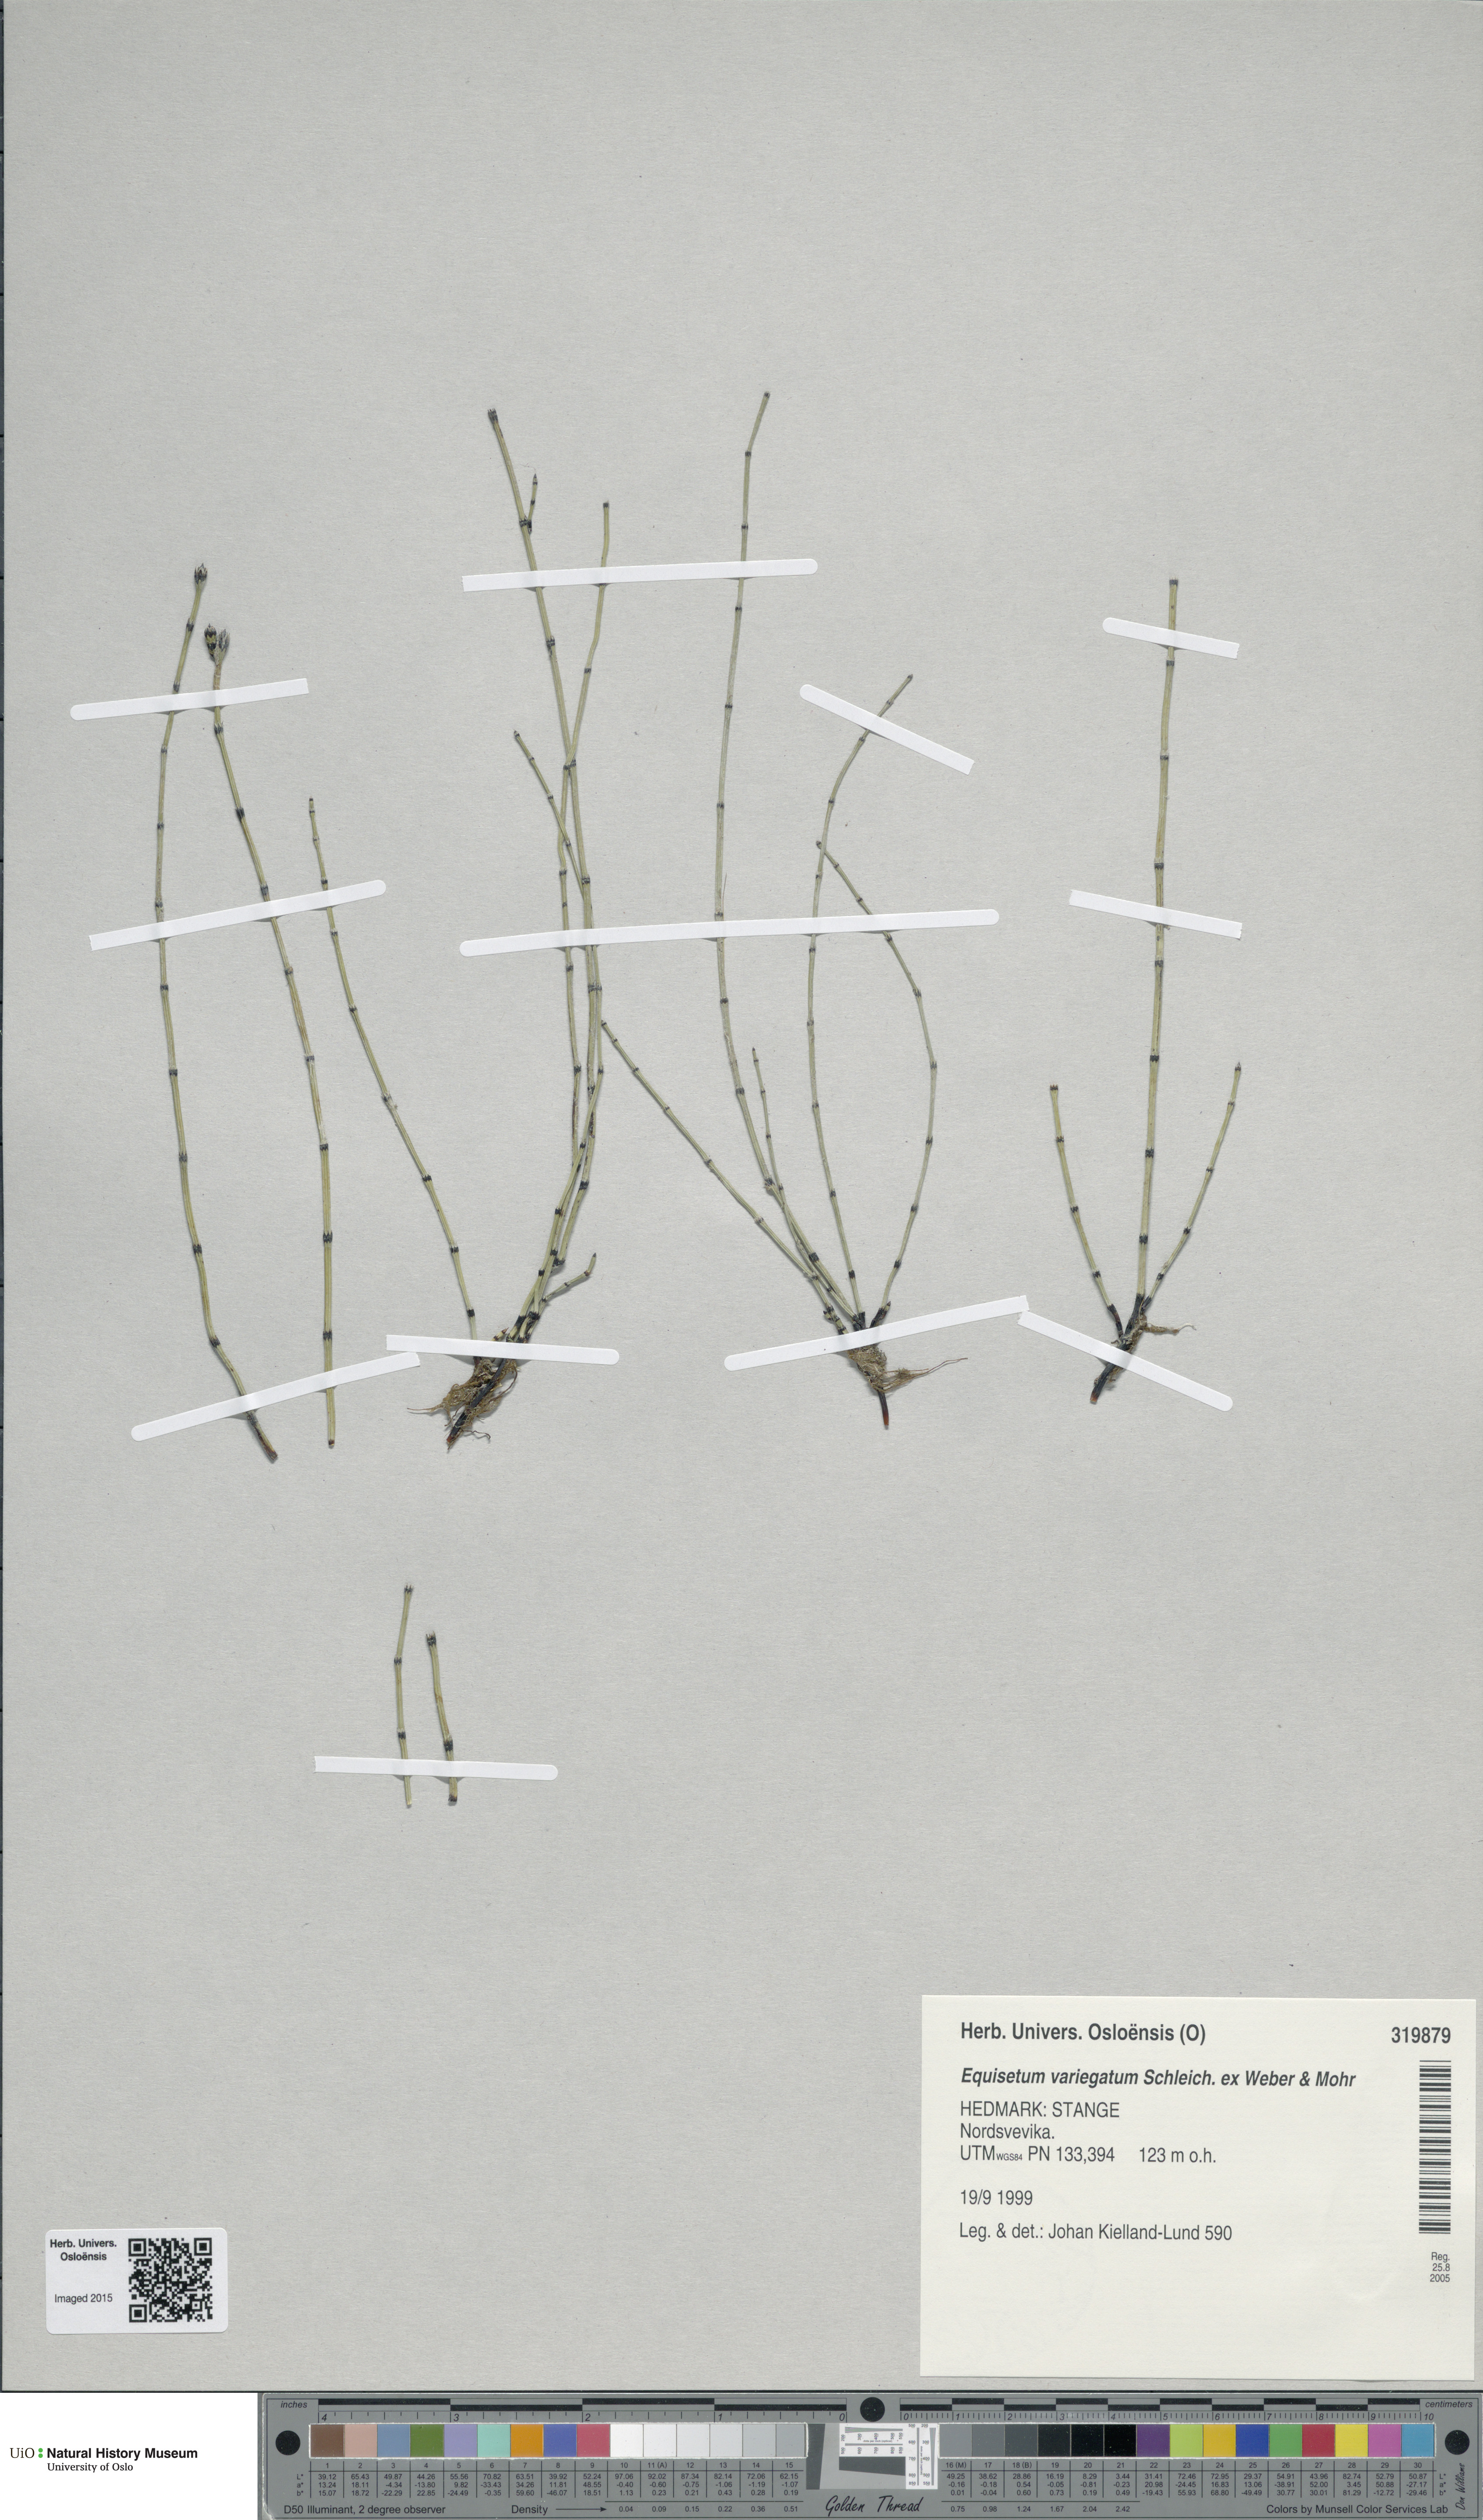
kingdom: Plantae
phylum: Tracheophyta
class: Polypodiopsida
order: Equisetales
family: Equisetaceae
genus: Equisetum
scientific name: Equisetum variegatum
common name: Variegated horsetail
